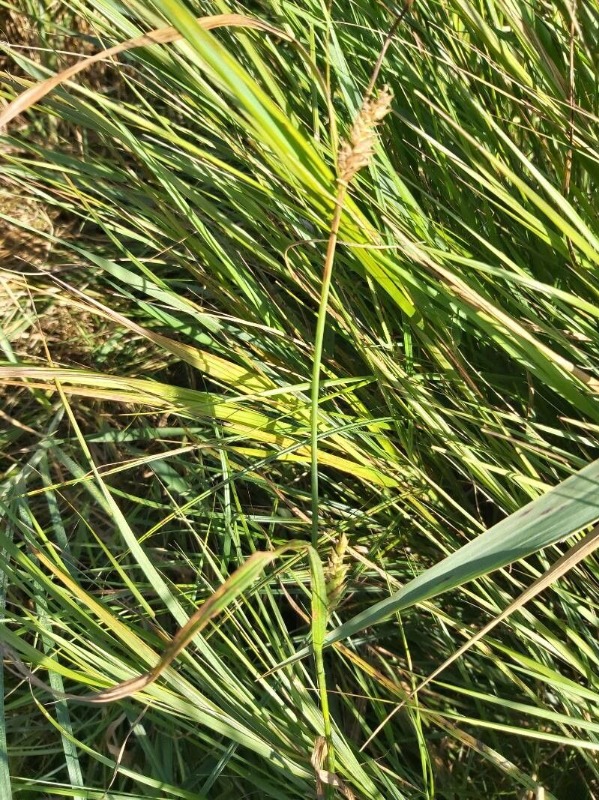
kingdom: Plantae
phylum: Tracheophyta
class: Liliopsida
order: Poales
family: Cyperaceae
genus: Carex
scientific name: Carex hirta
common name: Håret star
